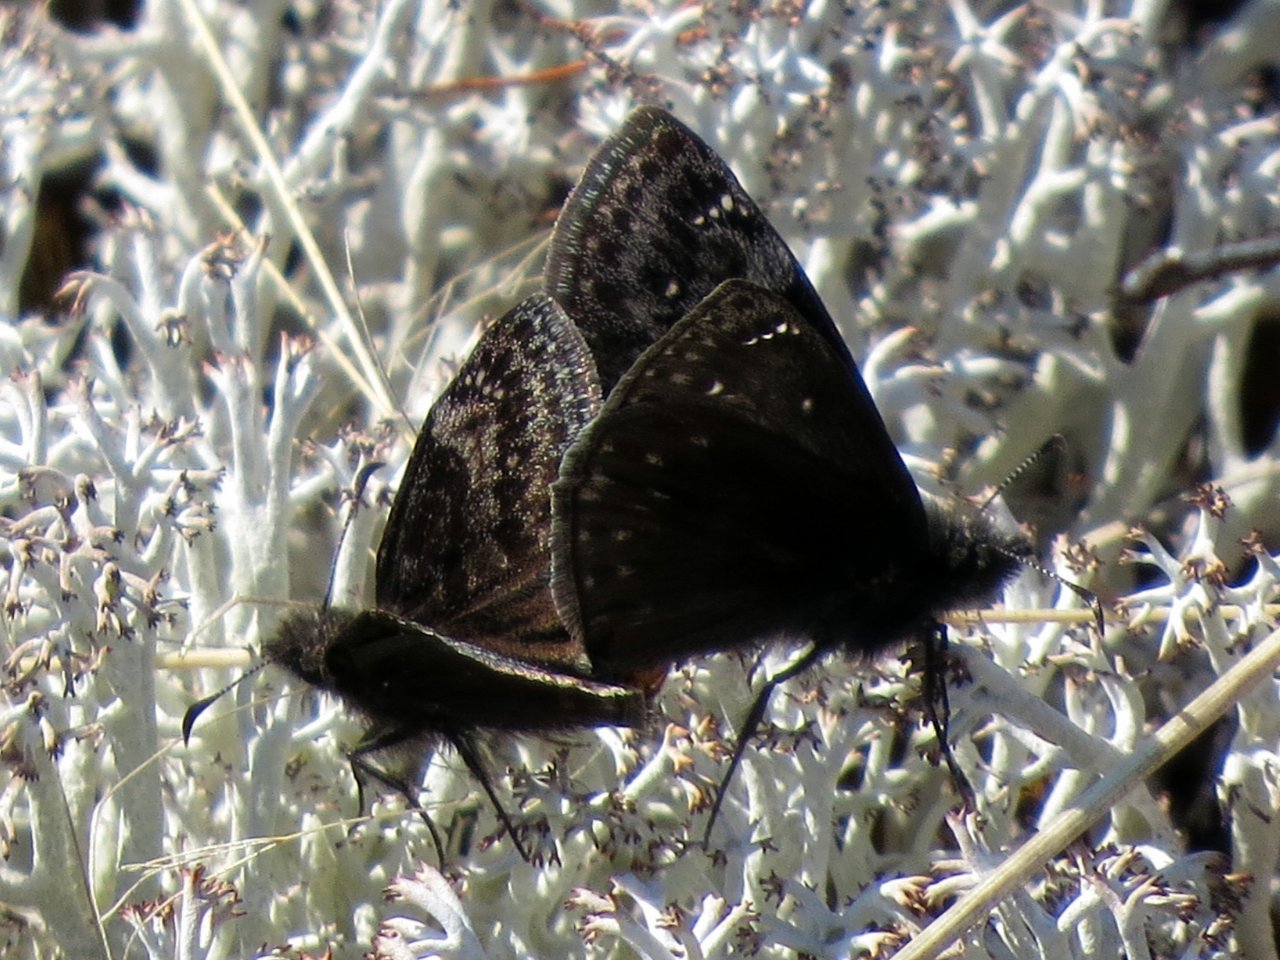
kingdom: Animalia
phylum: Arthropoda
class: Insecta
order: Lepidoptera
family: Hesperiidae
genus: Erynnis
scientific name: Erynnis
